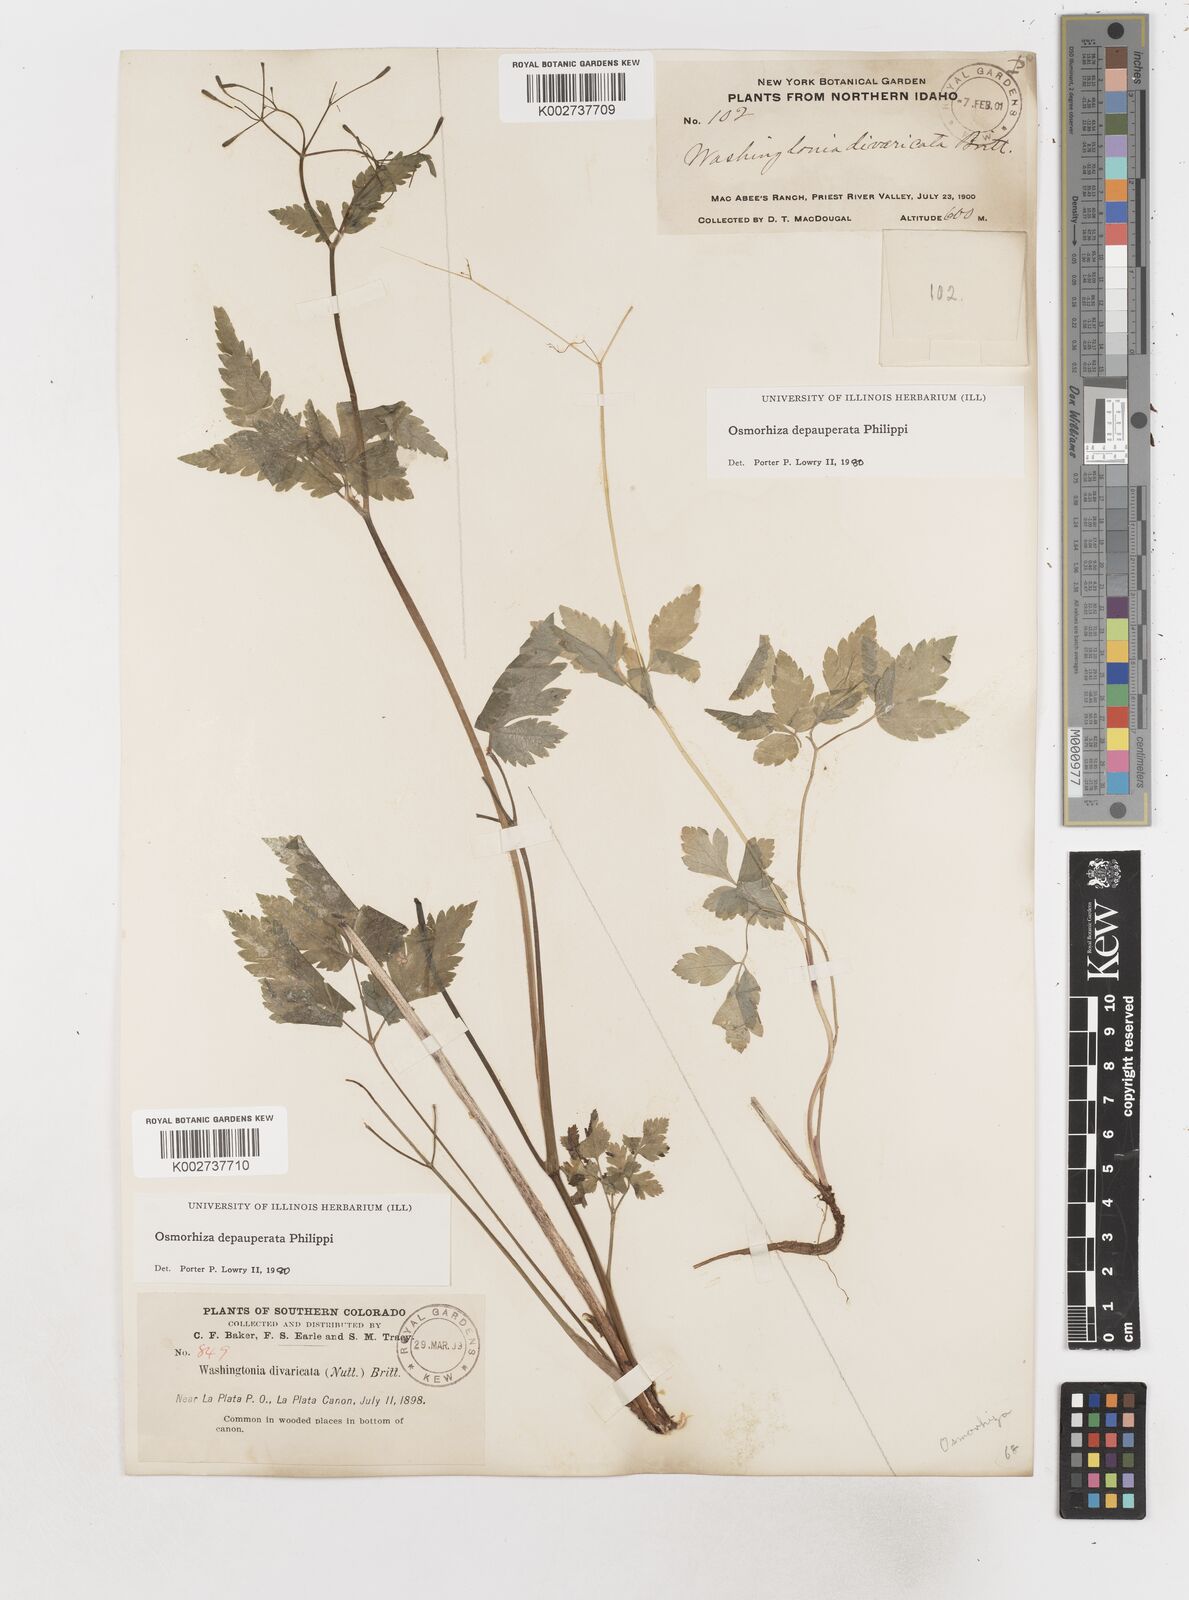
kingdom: Plantae
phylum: Tracheophyta
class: Magnoliopsida
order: Apiales
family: Apiaceae
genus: Osmorhiza
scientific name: Osmorhiza depauperata
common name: Blunt sweet cicely
